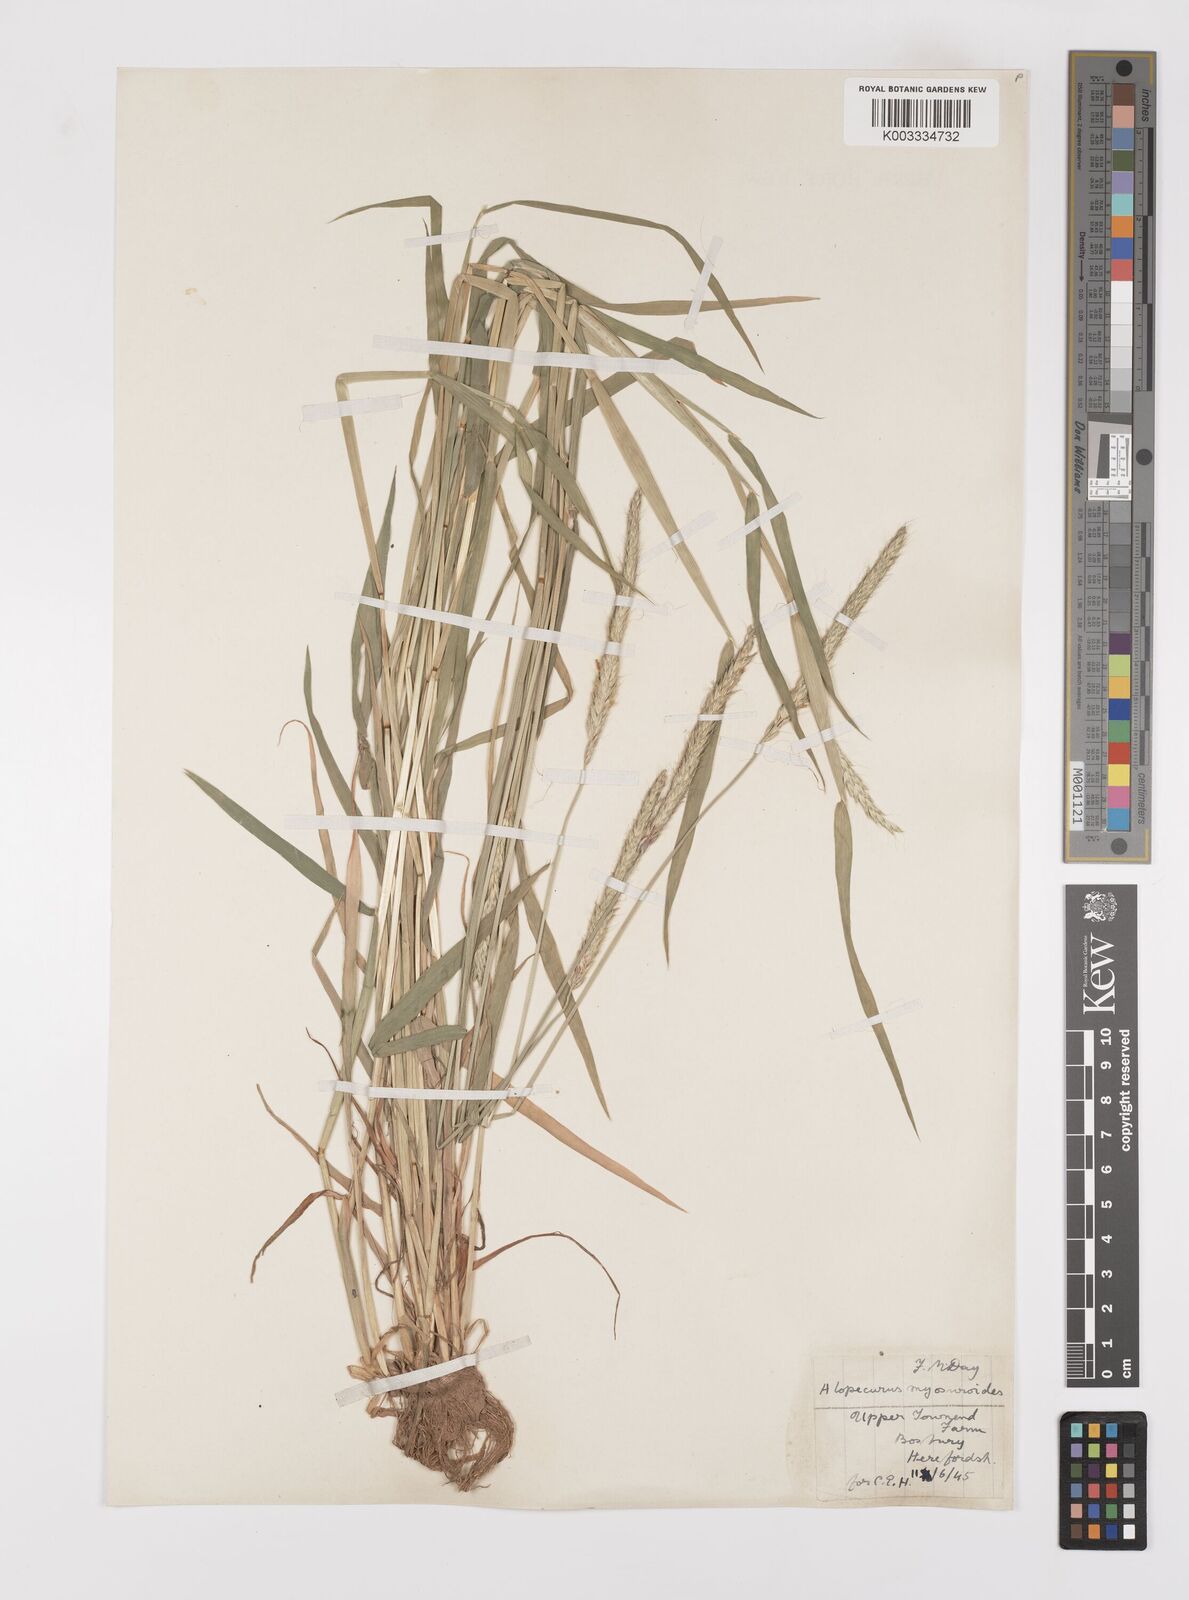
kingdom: Plantae
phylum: Tracheophyta
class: Liliopsida
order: Poales
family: Poaceae
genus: Alopecurus
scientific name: Alopecurus myosuroides
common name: Black-grass
